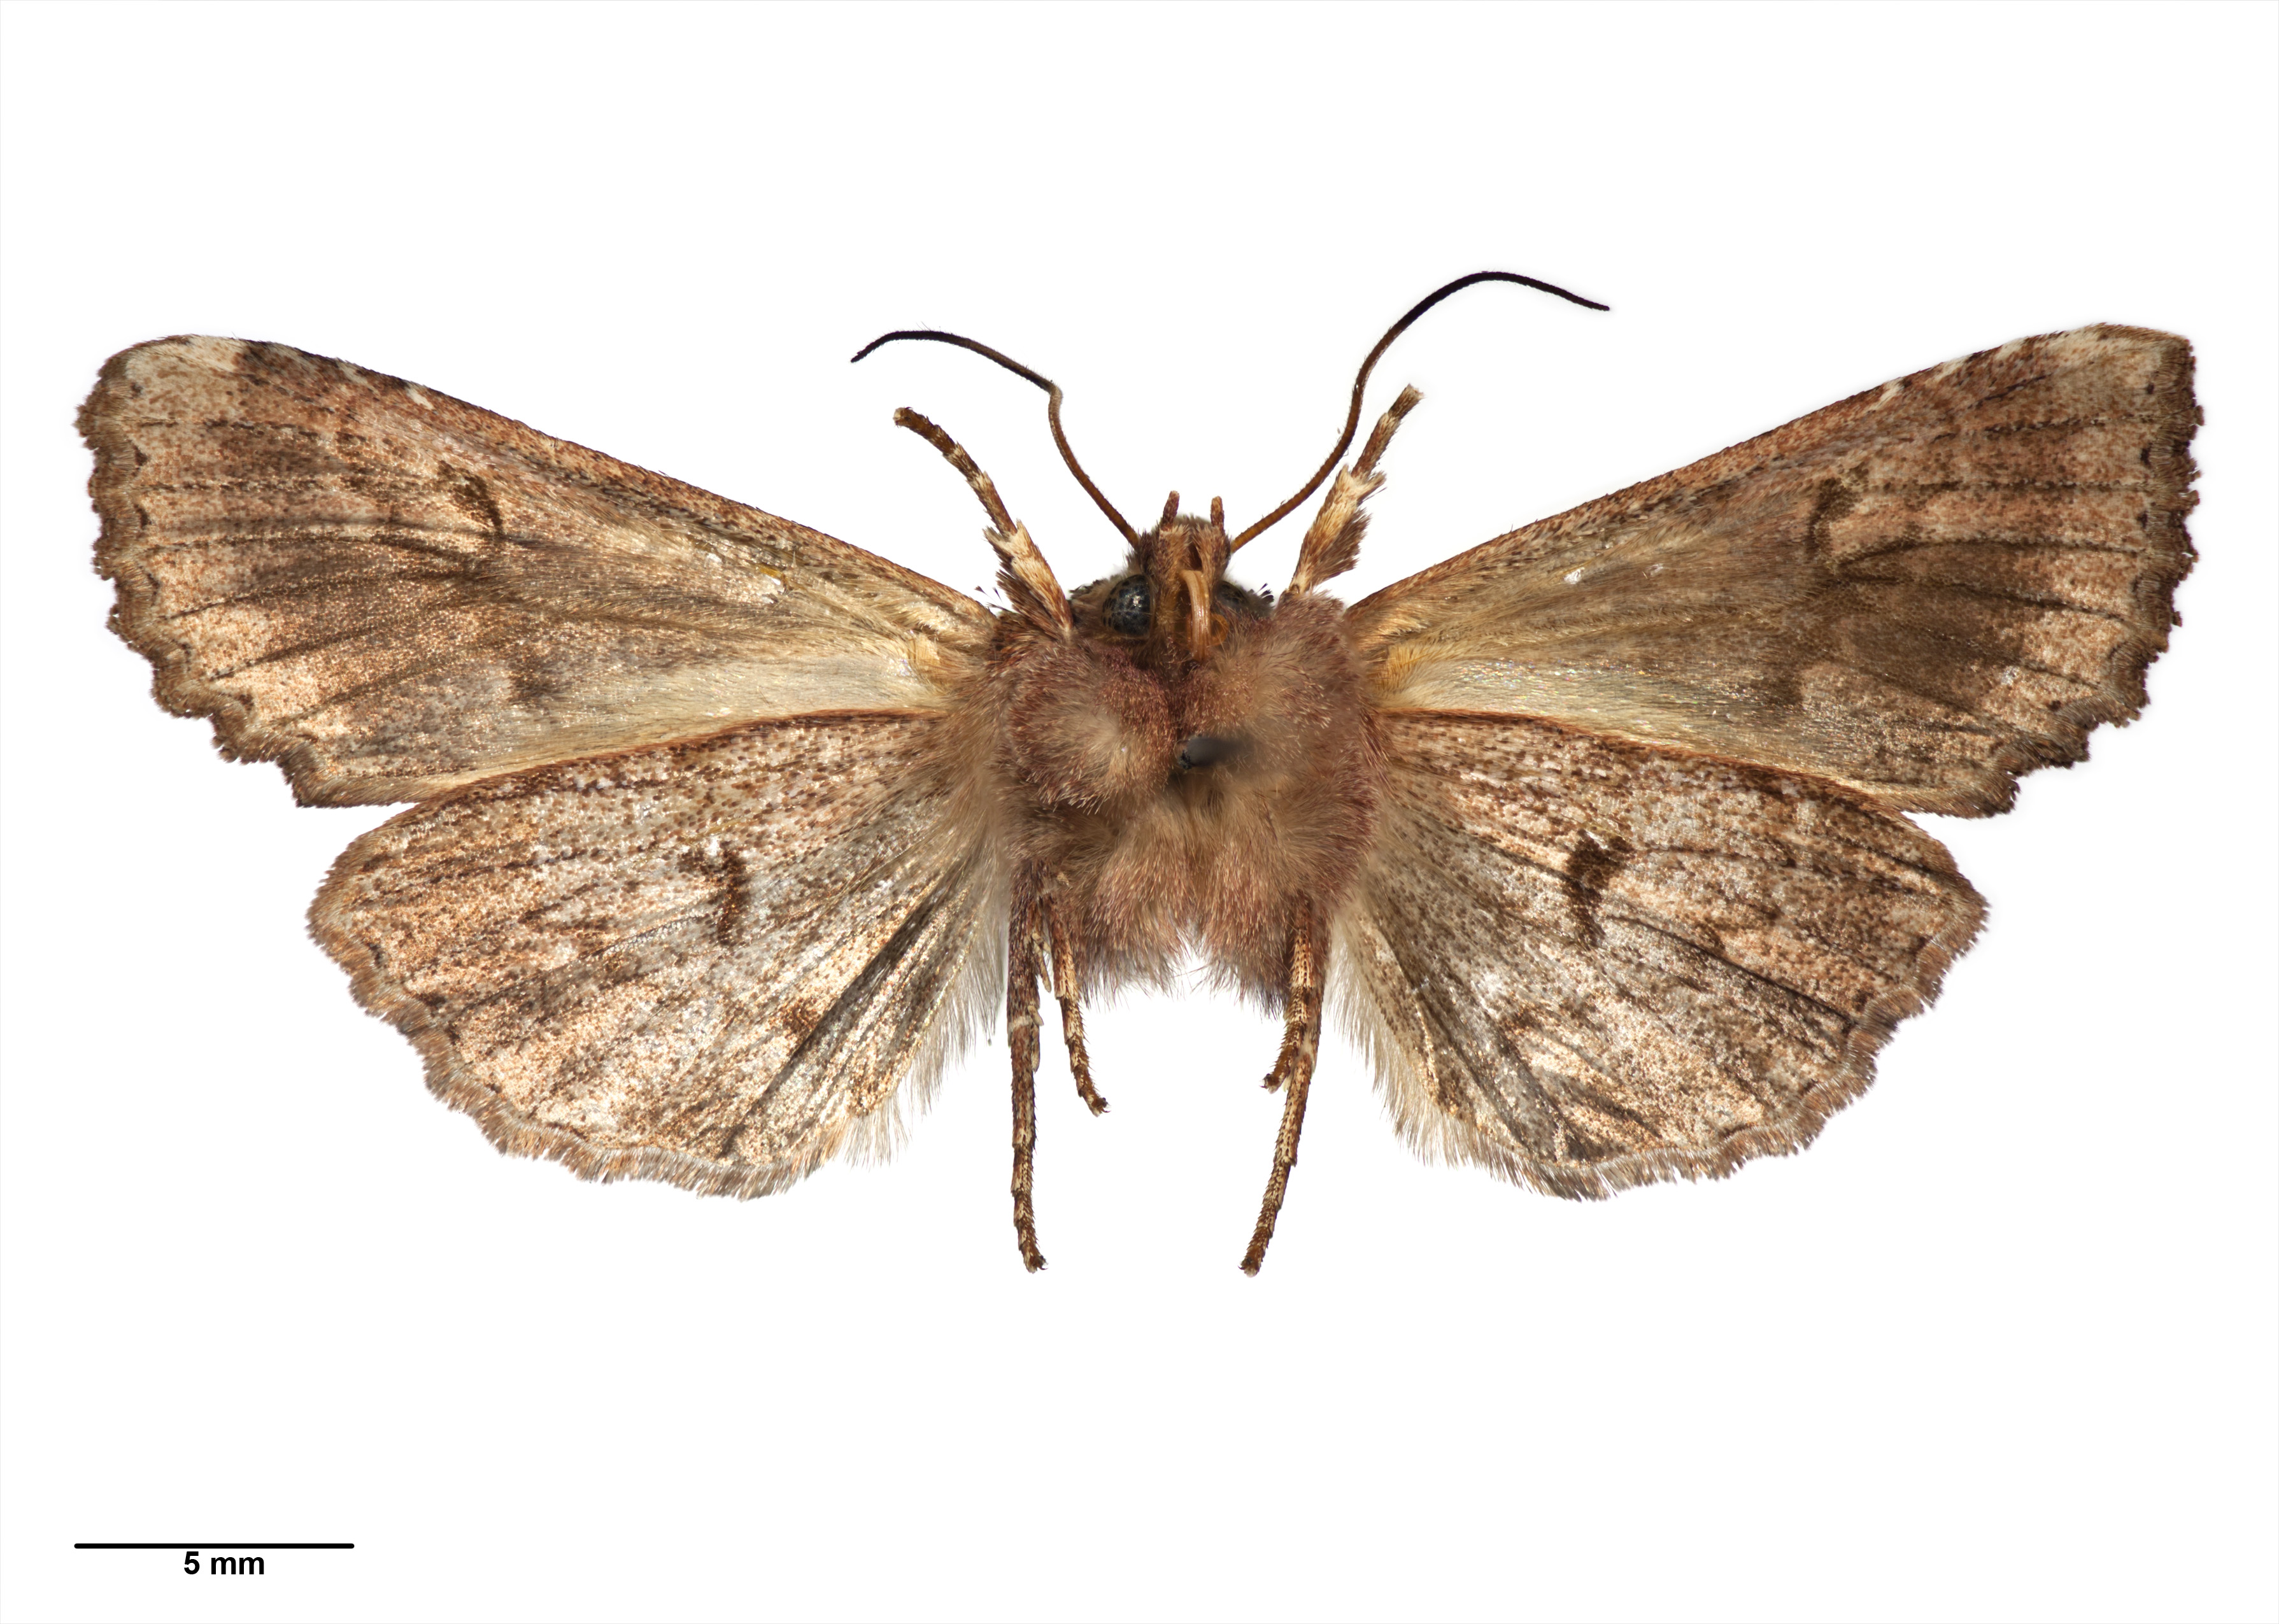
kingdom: Animalia
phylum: Arthropoda
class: Insecta
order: Lepidoptera
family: Noctuidae
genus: Meterana
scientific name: Meterana
